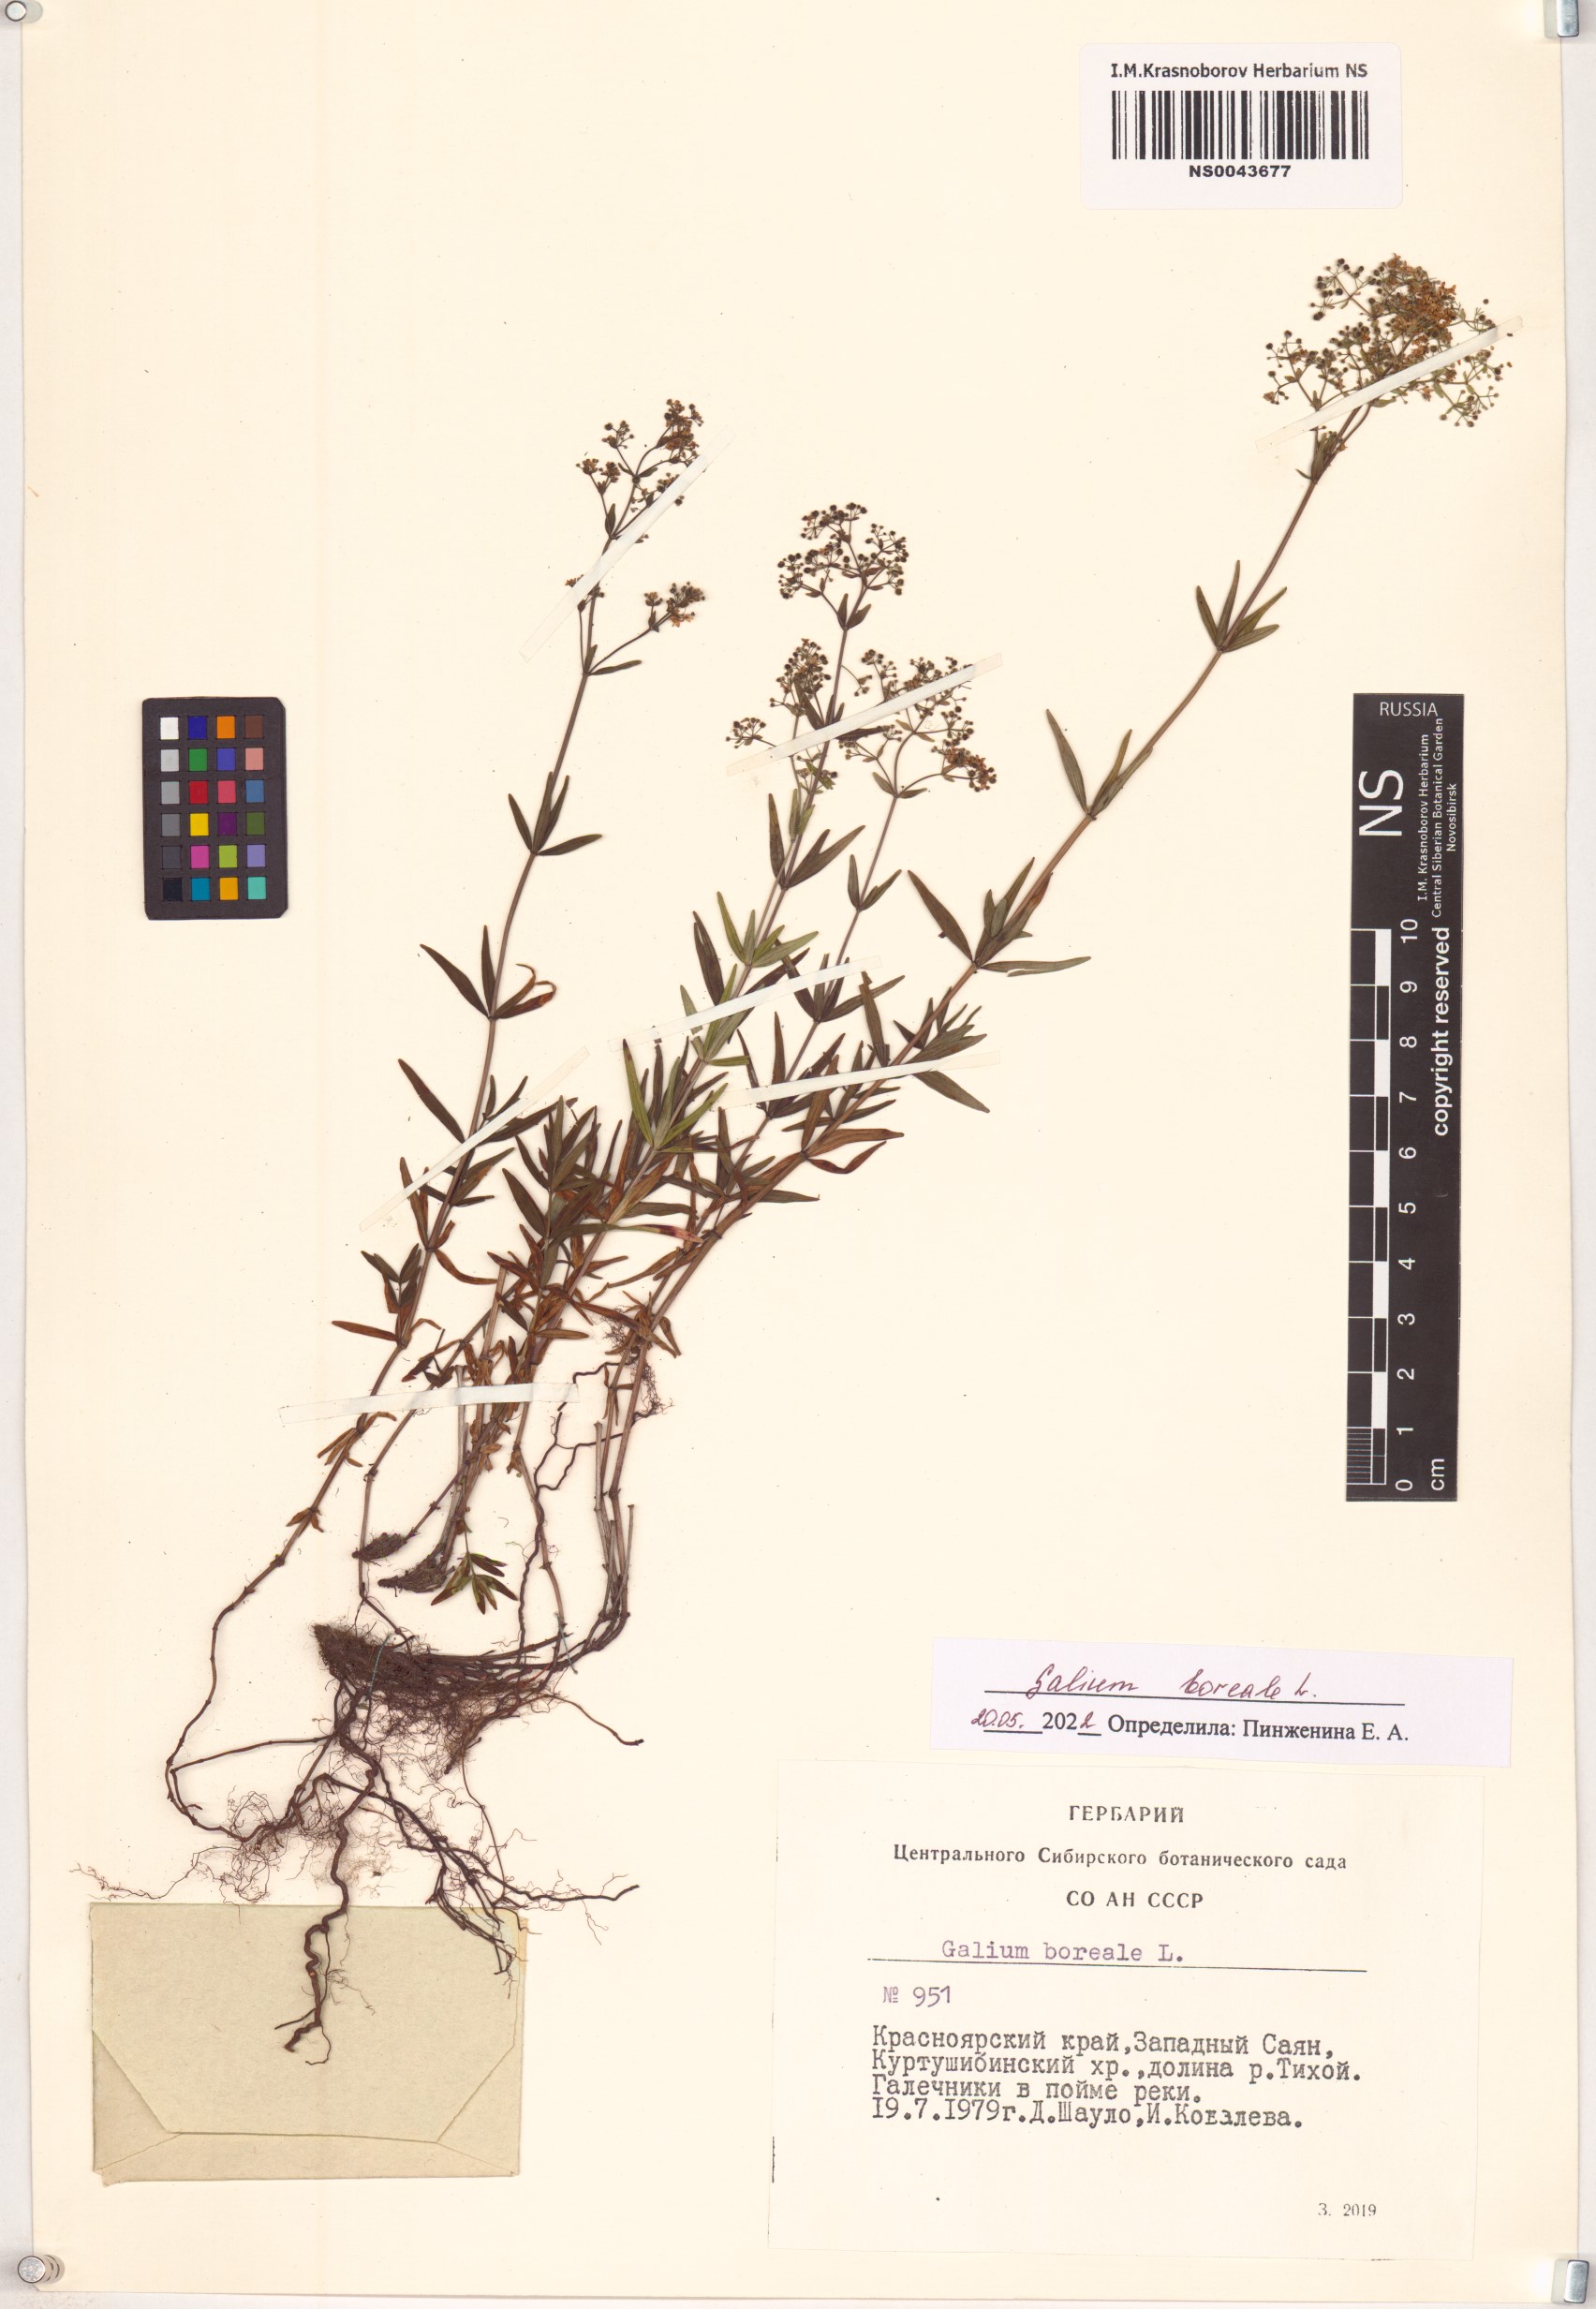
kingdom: Plantae
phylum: Tracheophyta
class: Magnoliopsida
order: Gentianales
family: Rubiaceae
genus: Galium
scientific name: Galium boreale
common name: Northern bedstraw
